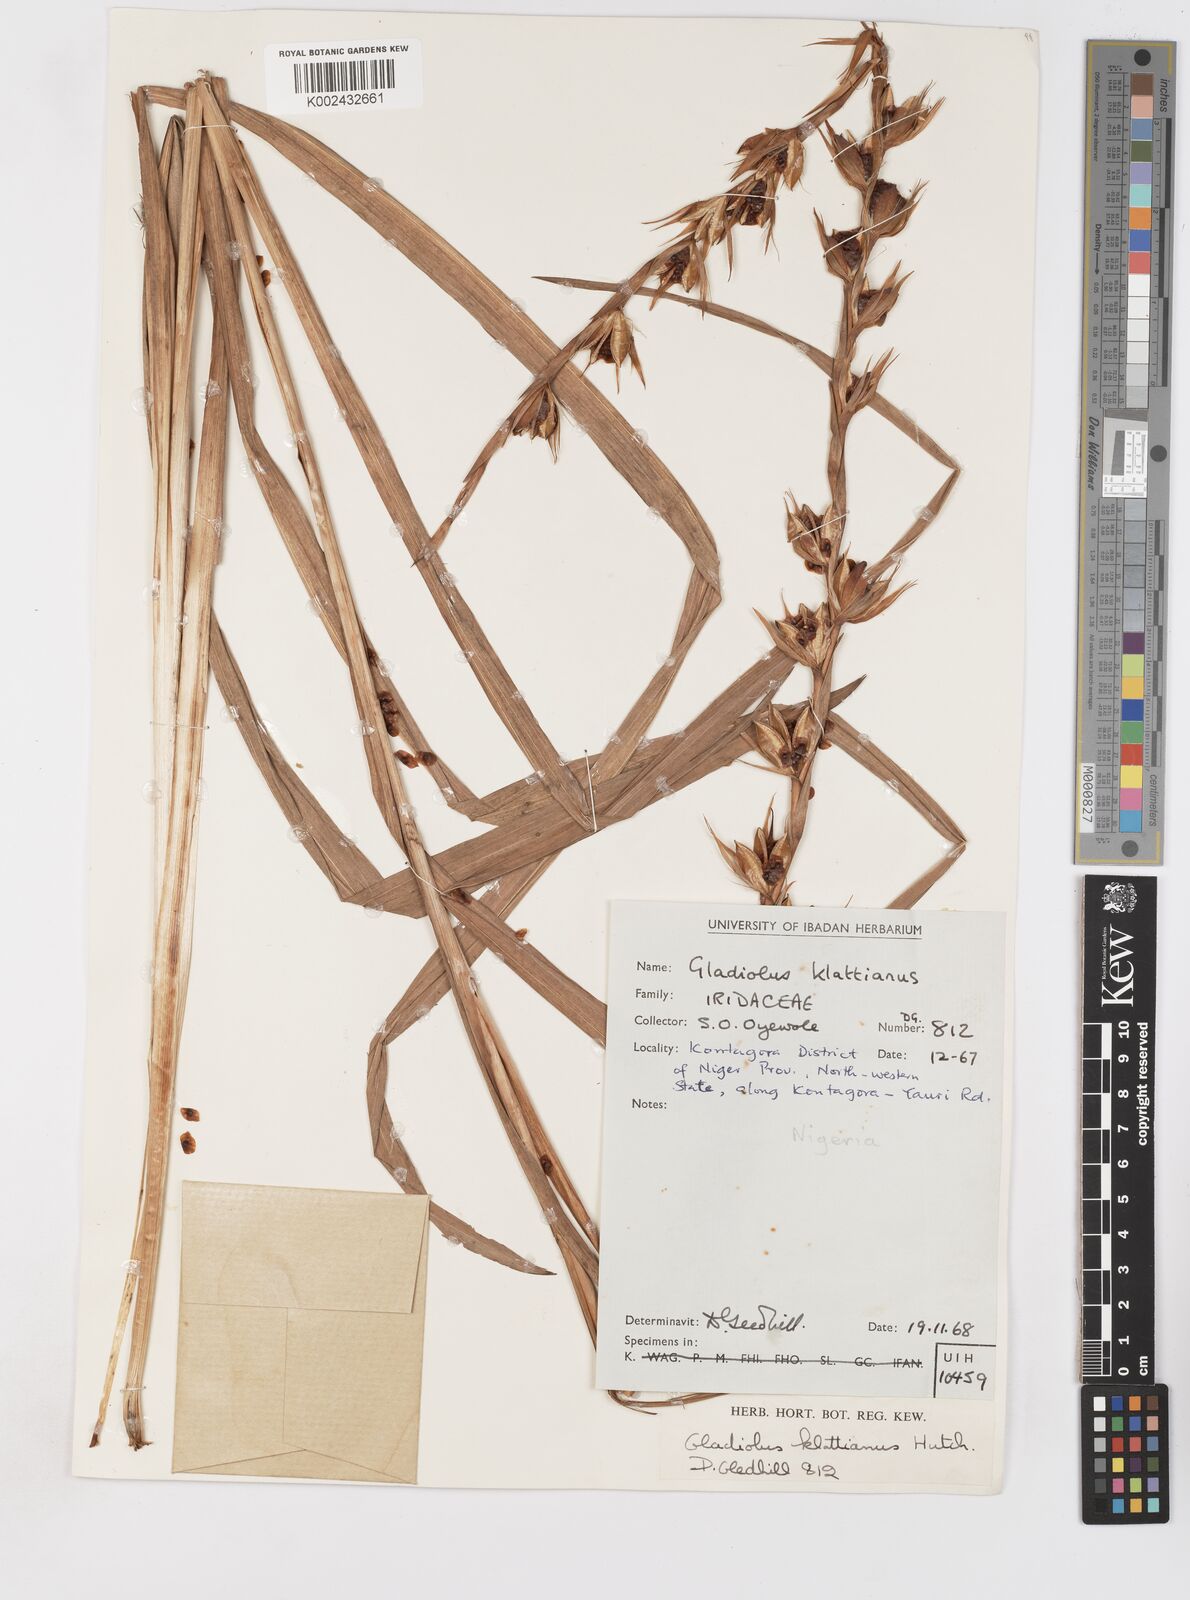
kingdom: Plantae
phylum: Tracheophyta
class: Liliopsida
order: Asparagales
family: Iridaceae
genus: Gladiolus
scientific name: Gladiolus gregarius
